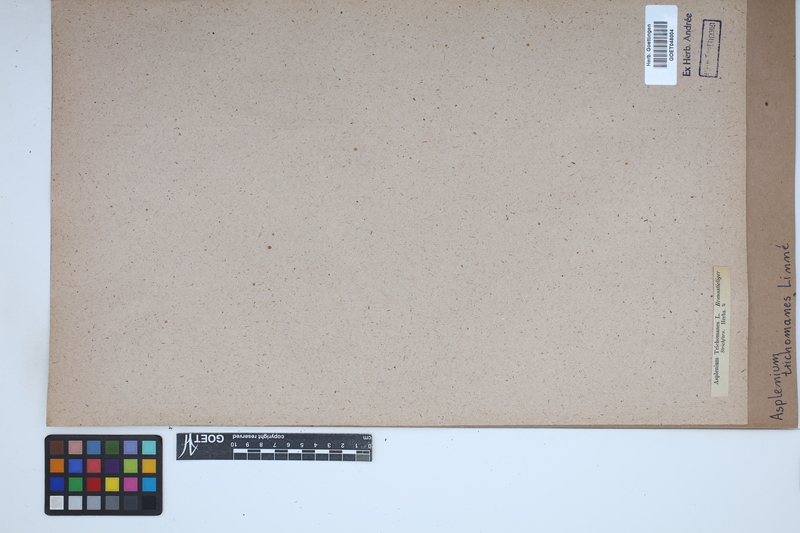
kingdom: Plantae
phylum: Tracheophyta
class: Polypodiopsida
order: Polypodiales
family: Aspleniaceae
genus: Asplenium
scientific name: Asplenium trichomanes
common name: Maidenhair spleenwort
